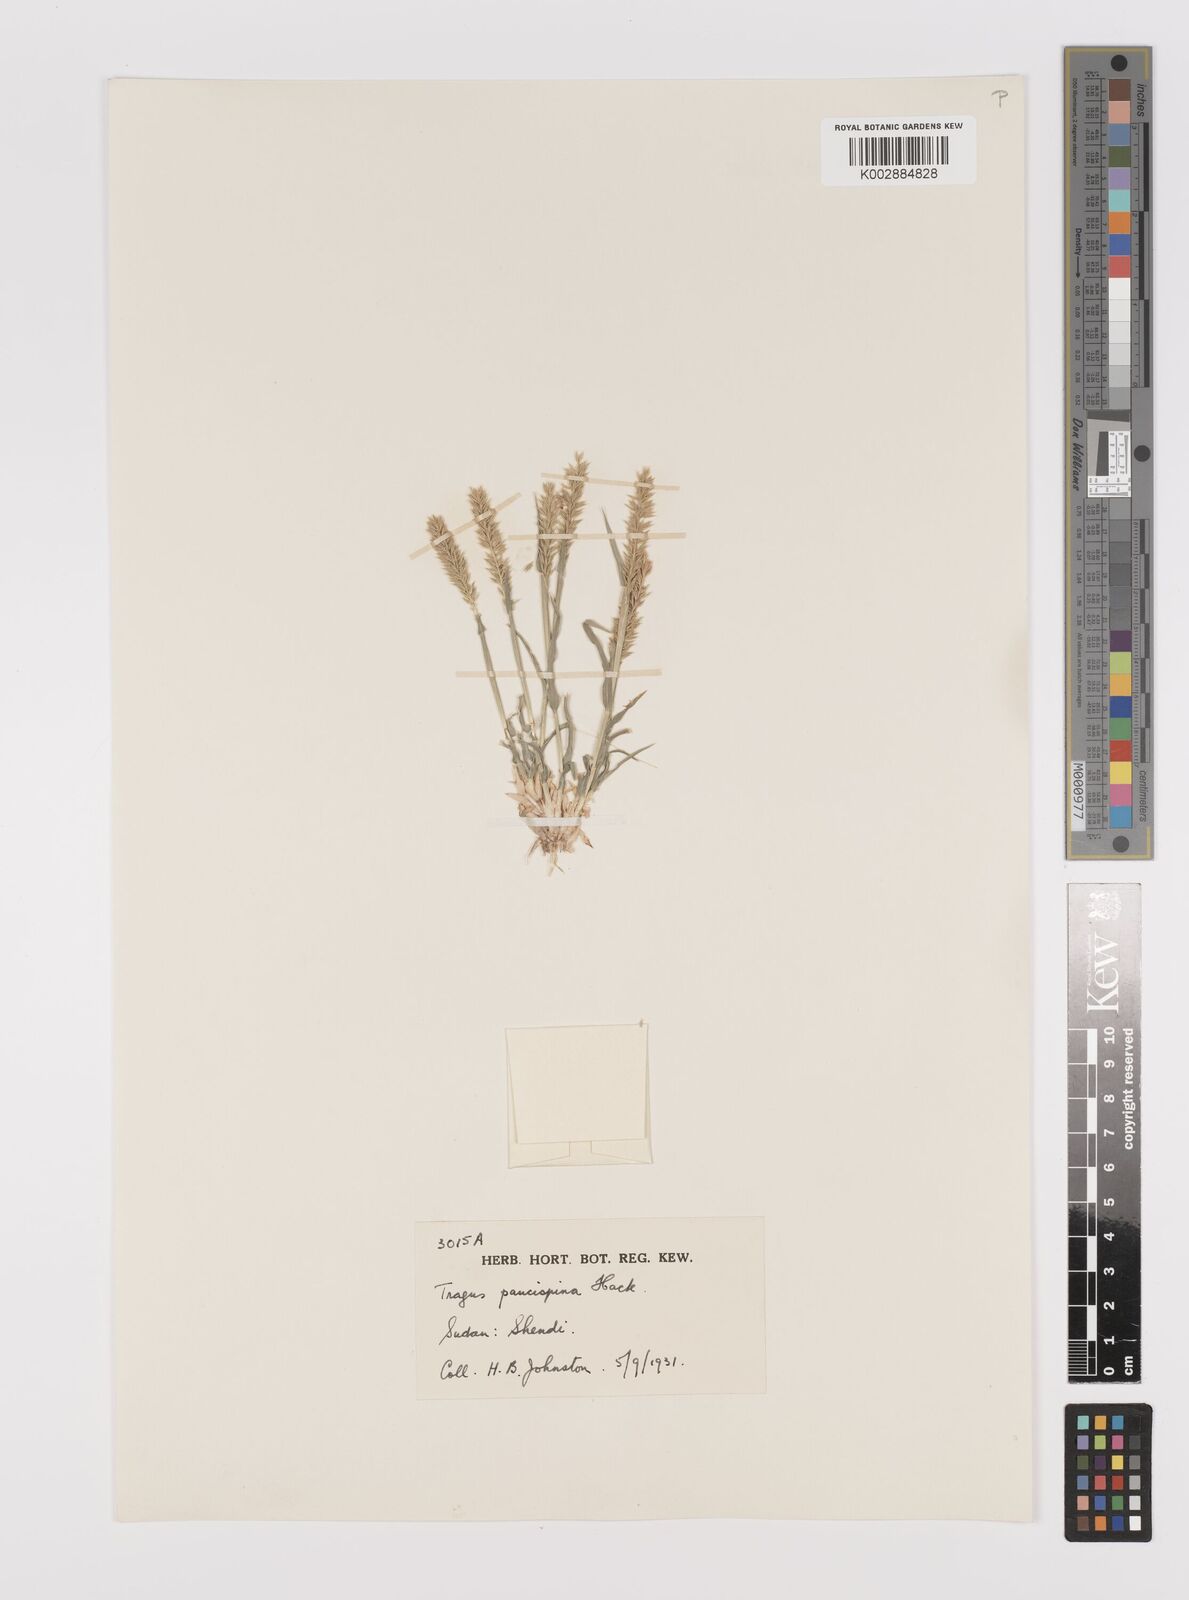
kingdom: Plantae
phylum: Tracheophyta
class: Liliopsida
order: Poales
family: Poaceae
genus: Tragus
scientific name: Tragus racemosus
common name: European bur-grass
